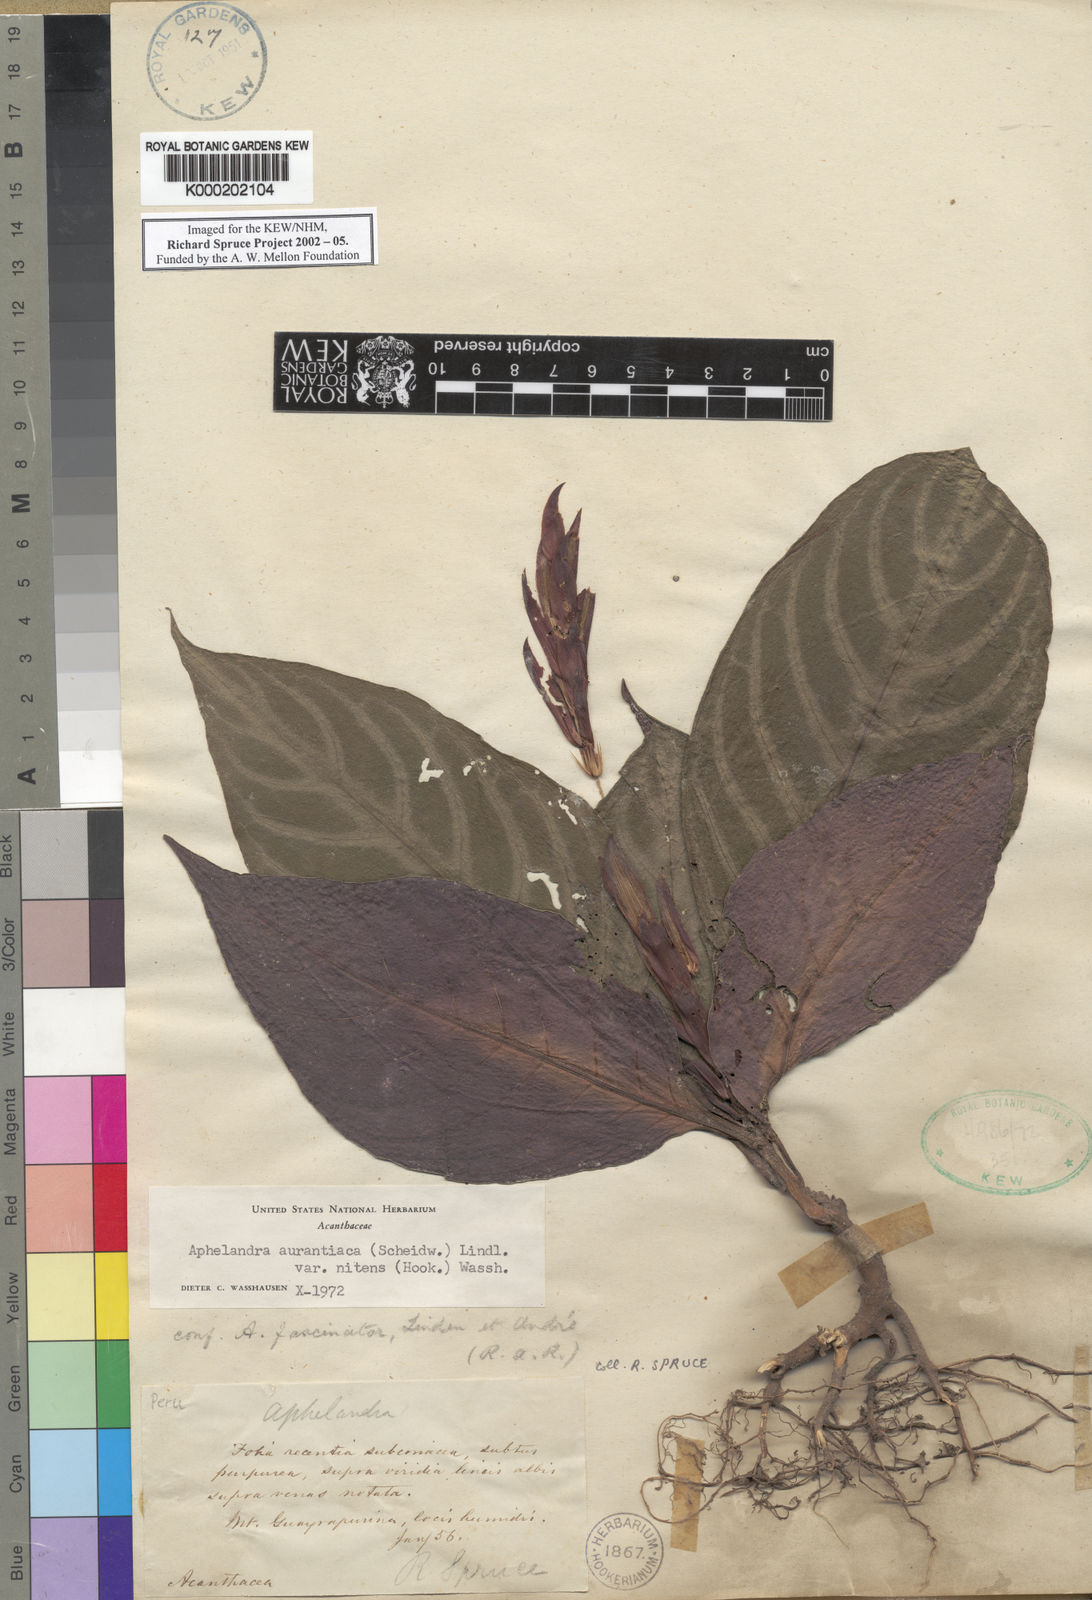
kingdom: Plantae
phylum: Tracheophyta
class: Magnoliopsida
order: Lamiales
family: Acanthaceae
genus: Aphelandra
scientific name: Aphelandra aurantiaca
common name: Fiery spike
